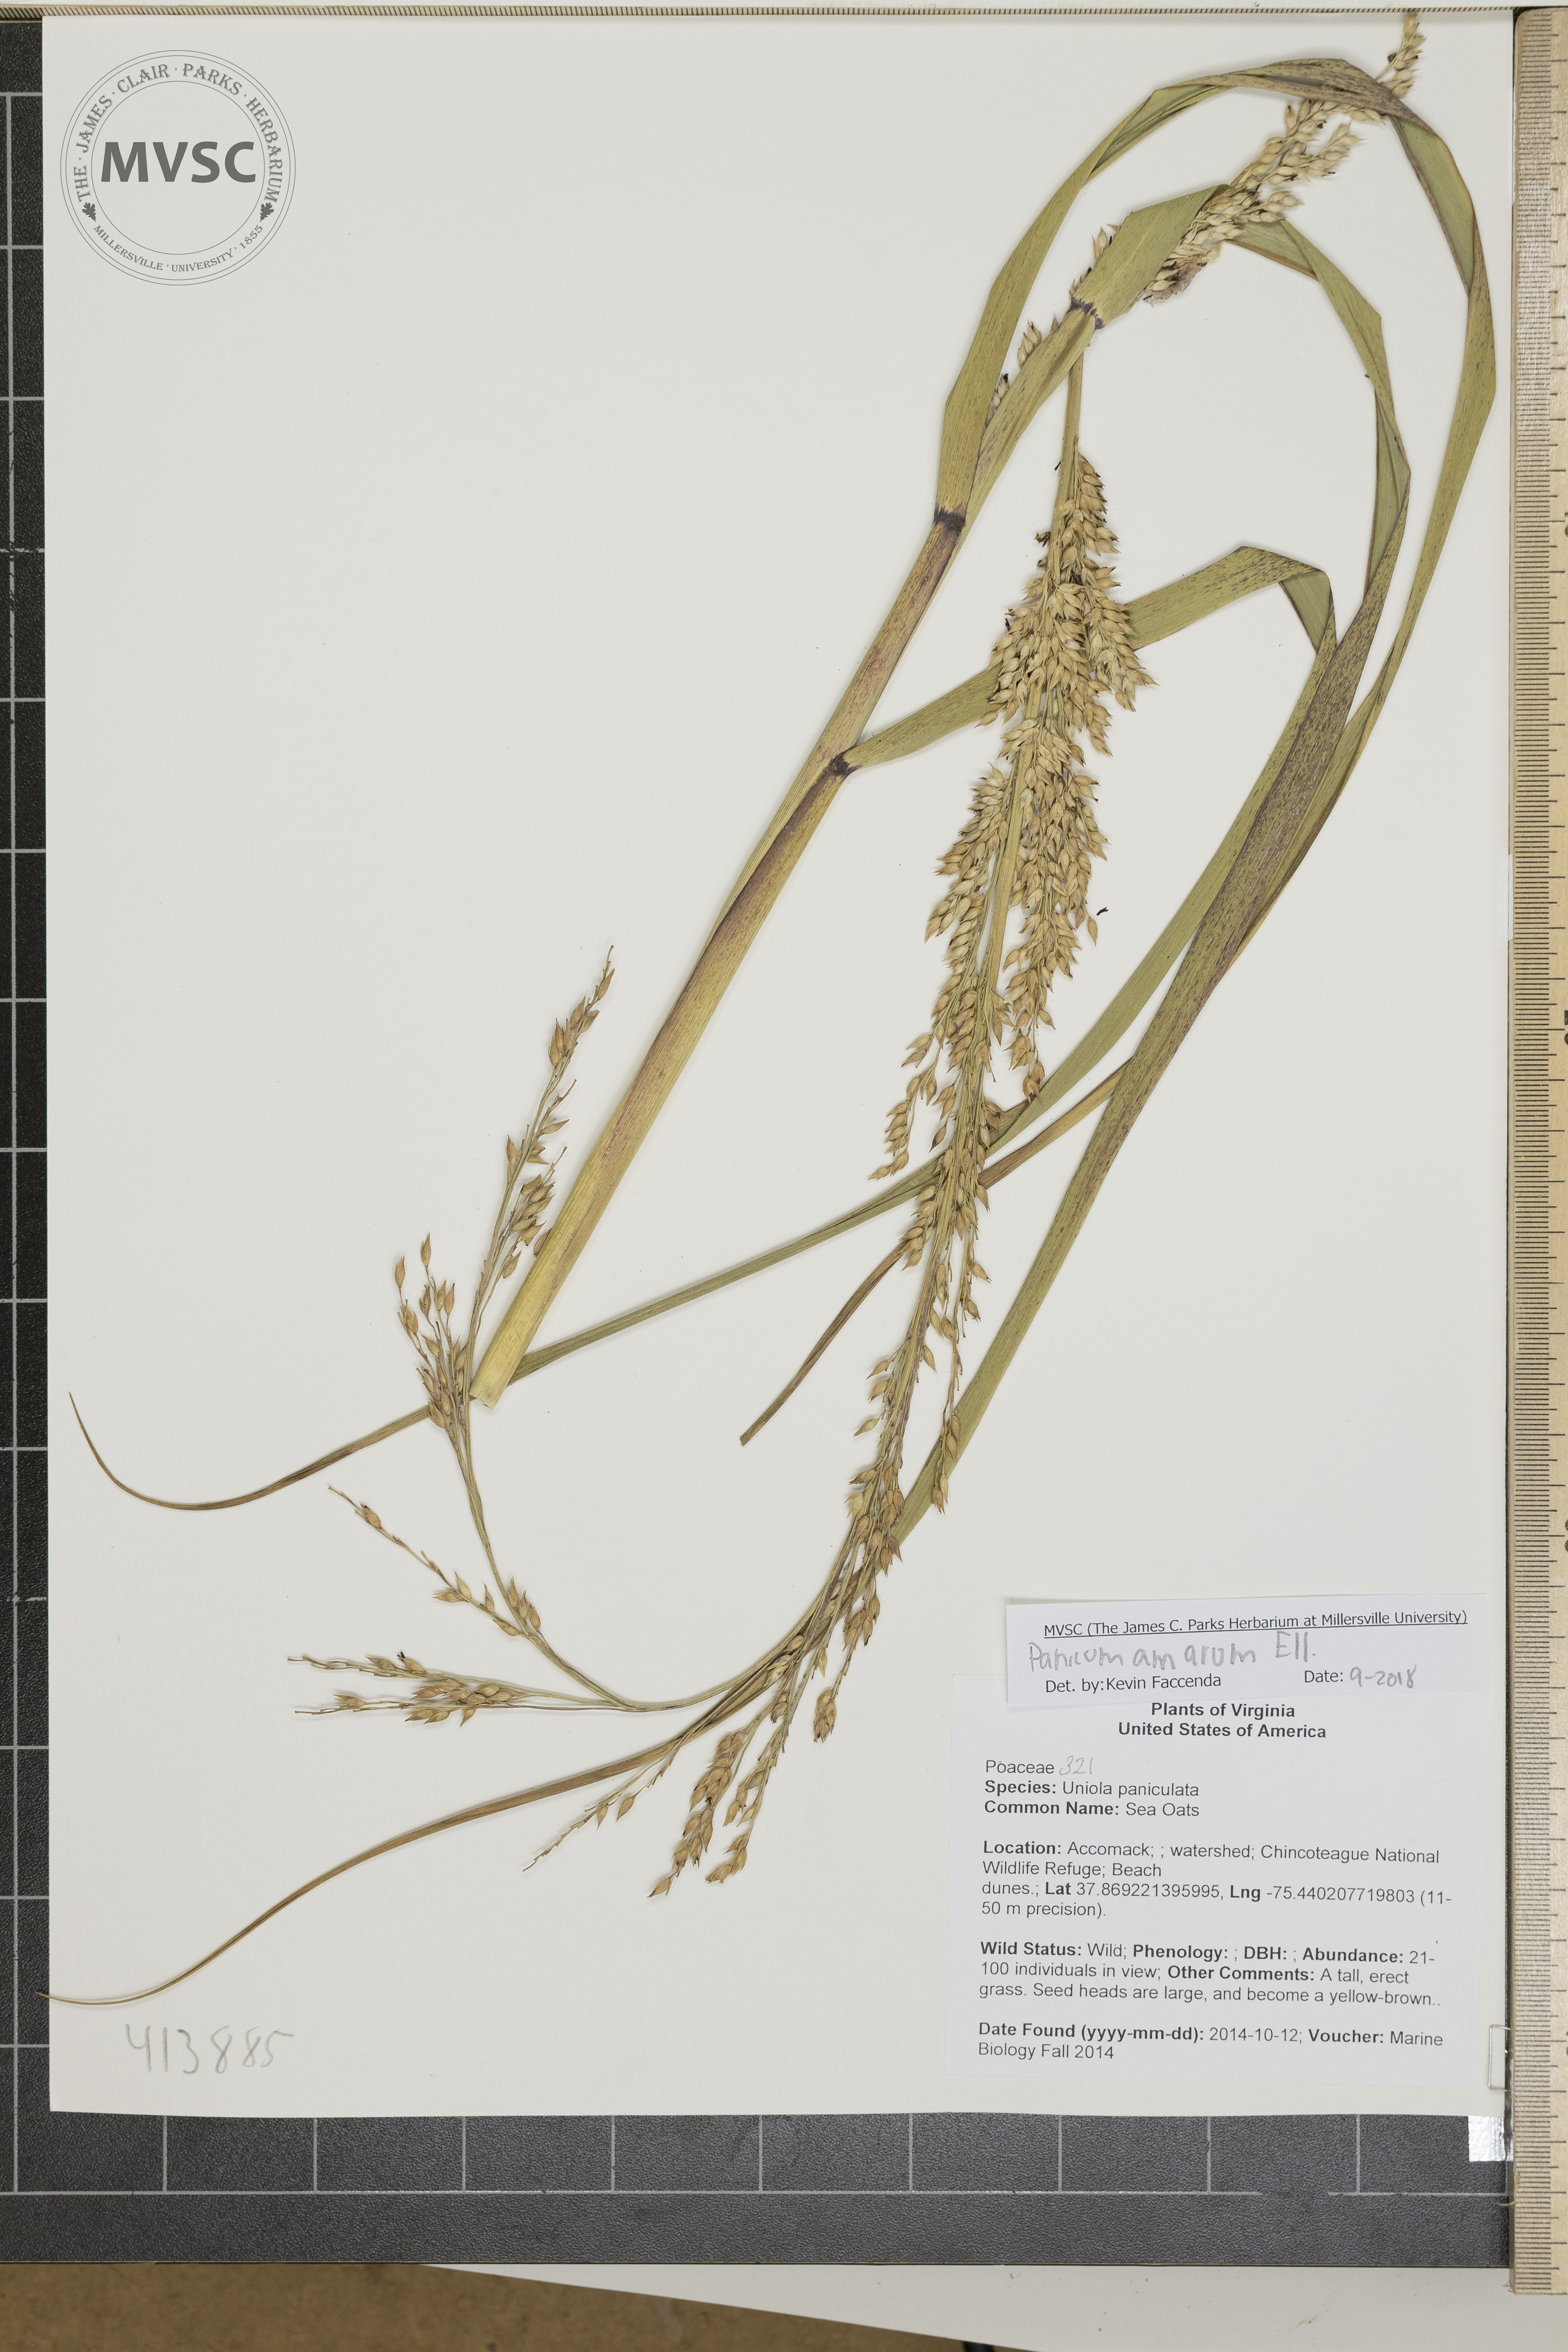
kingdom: Plantae
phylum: Tracheophyta
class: Liliopsida
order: Poales
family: Poaceae
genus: Panicum
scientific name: Panicum amarum
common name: Bitter panicum
